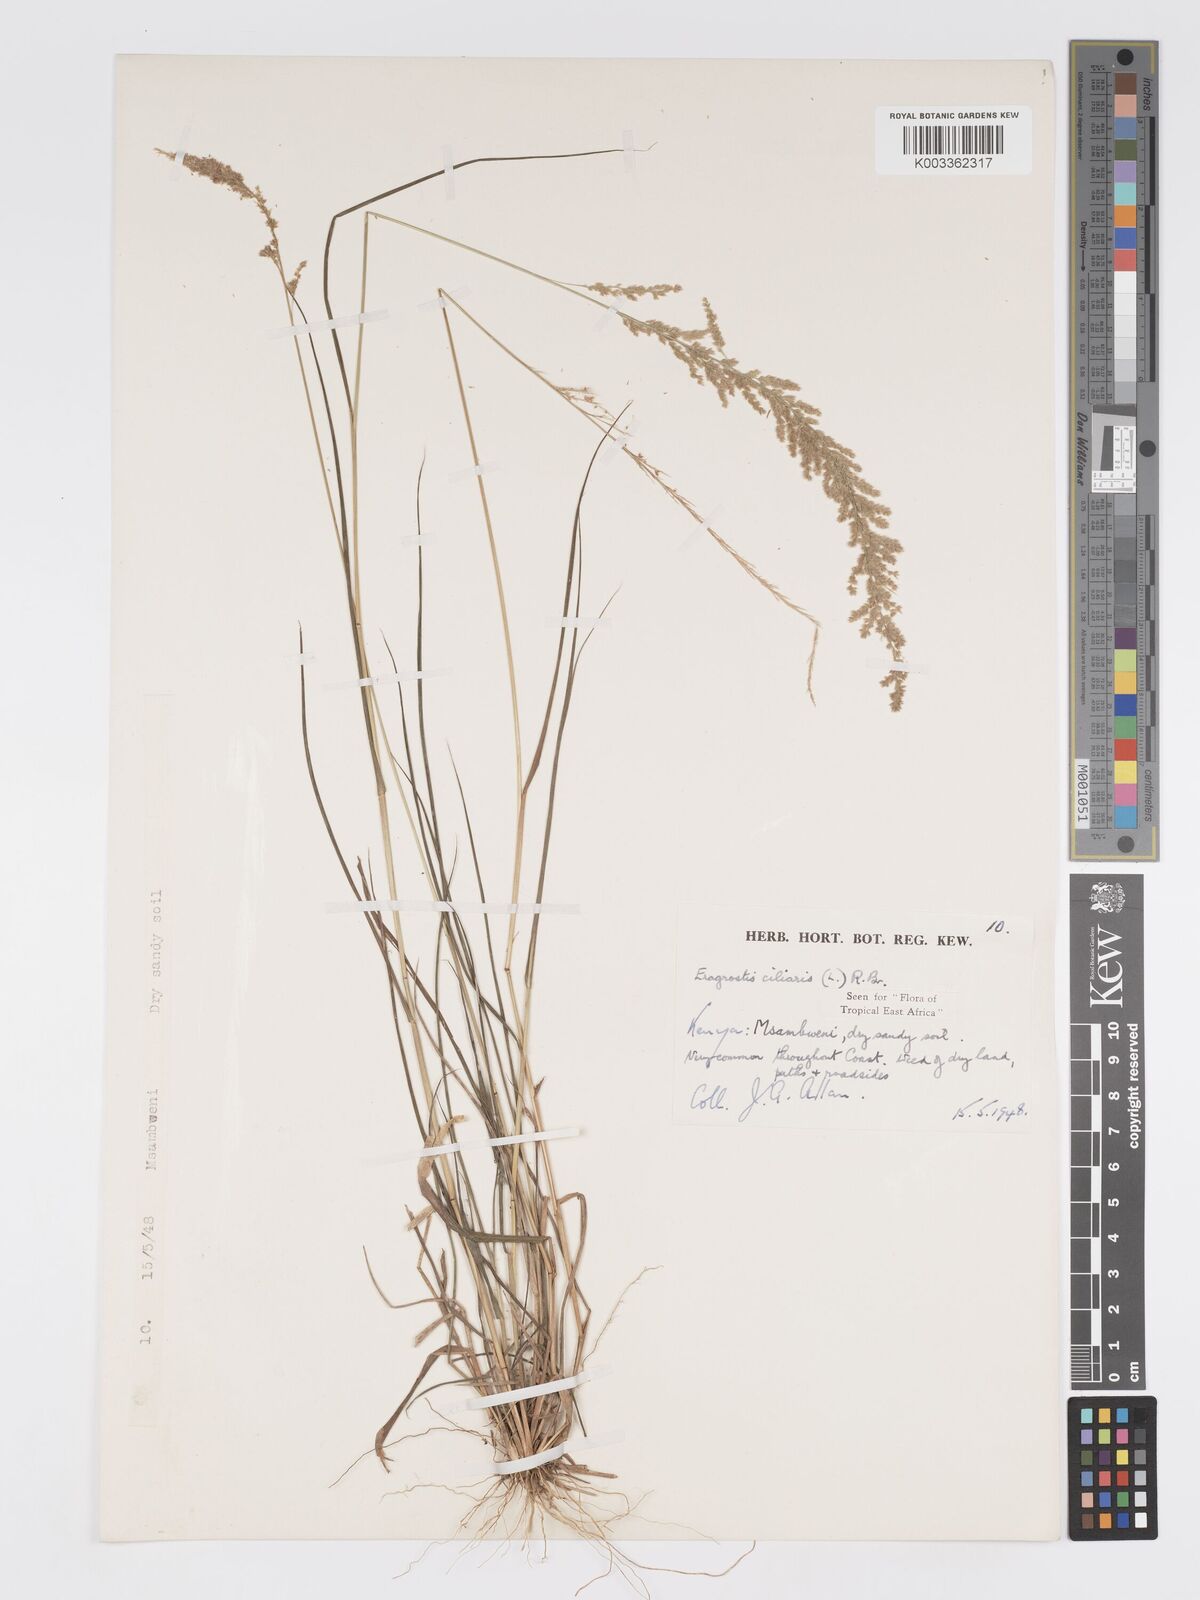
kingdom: Plantae
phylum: Tracheophyta
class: Liliopsida
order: Poales
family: Poaceae
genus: Eragrostis
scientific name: Eragrostis ciliaris
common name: Gophertail lovegrass
